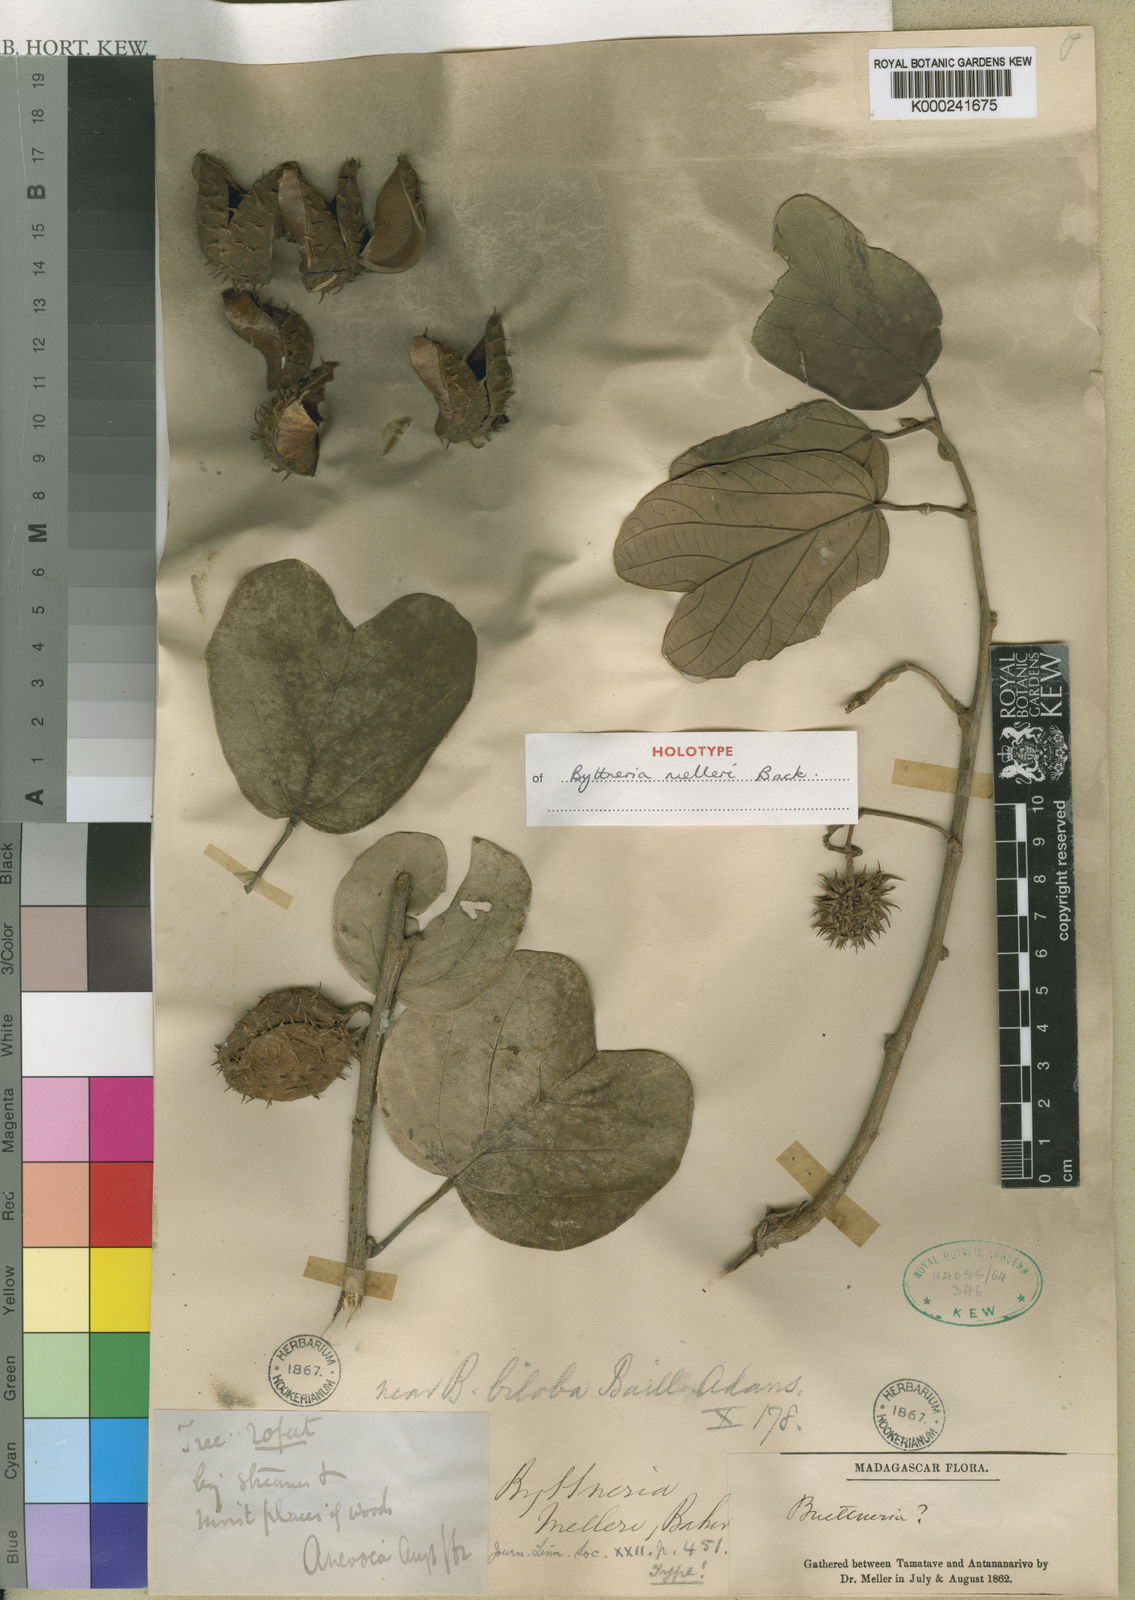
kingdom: Plantae
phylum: Tracheophyta
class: Magnoliopsida
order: Malvales
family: Malvaceae
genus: Byttneria
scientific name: Byttneria
